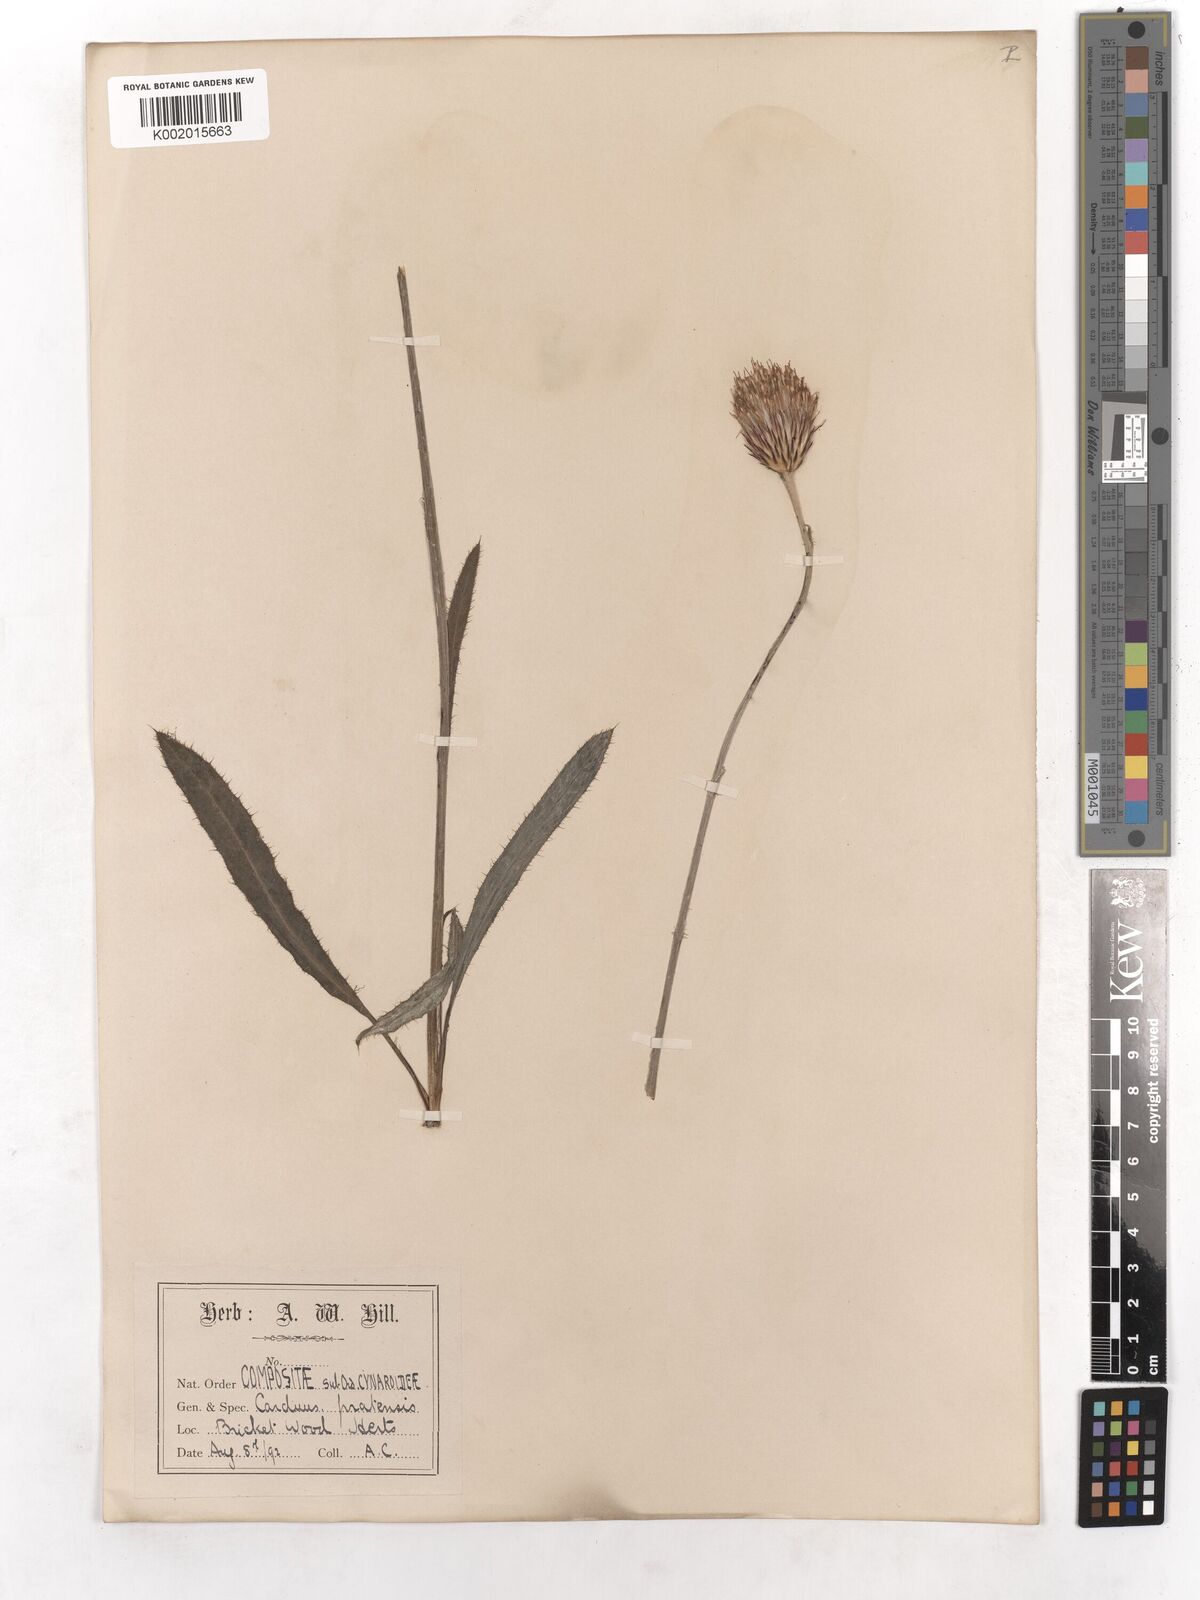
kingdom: Plantae
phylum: Tracheophyta
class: Magnoliopsida
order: Asterales
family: Asteraceae
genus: Cirsium
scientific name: Cirsium dissectum
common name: Meadow thistle
